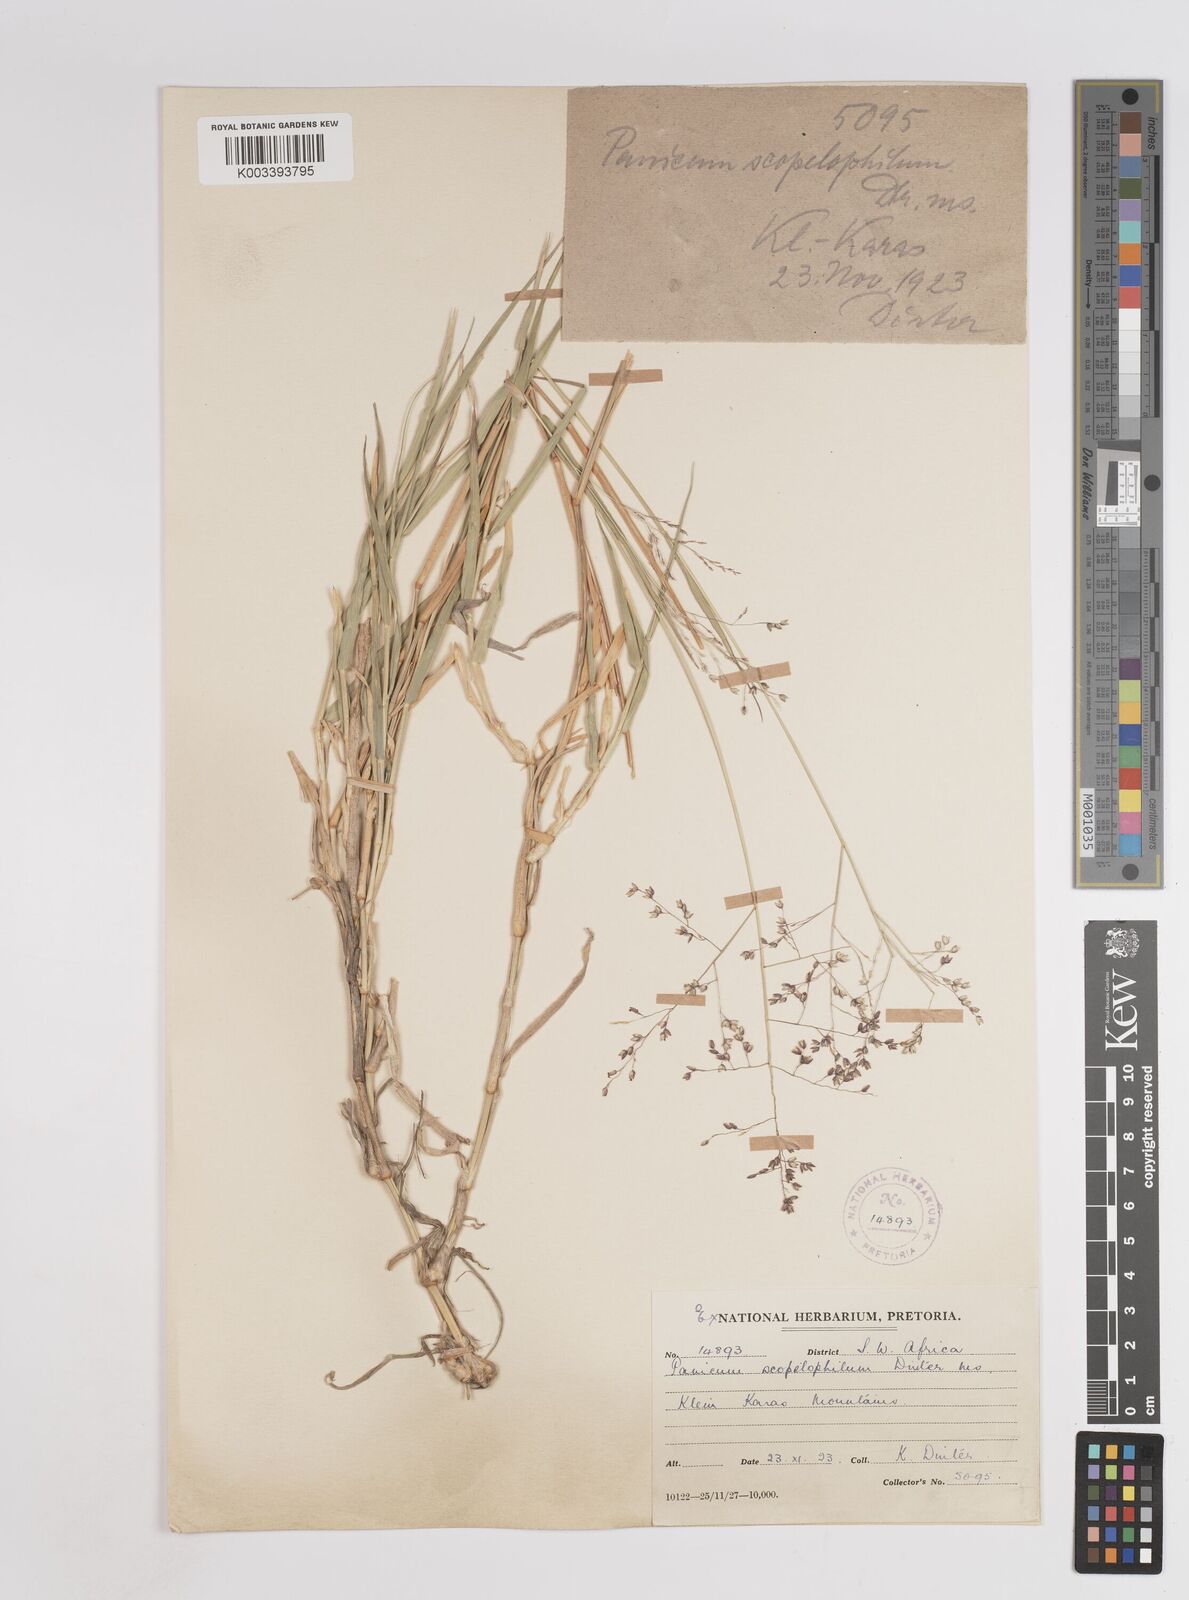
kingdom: Plantae
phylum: Tracheophyta
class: Liliopsida
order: Poales
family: Poaceae
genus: Panicum
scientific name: Panicum
